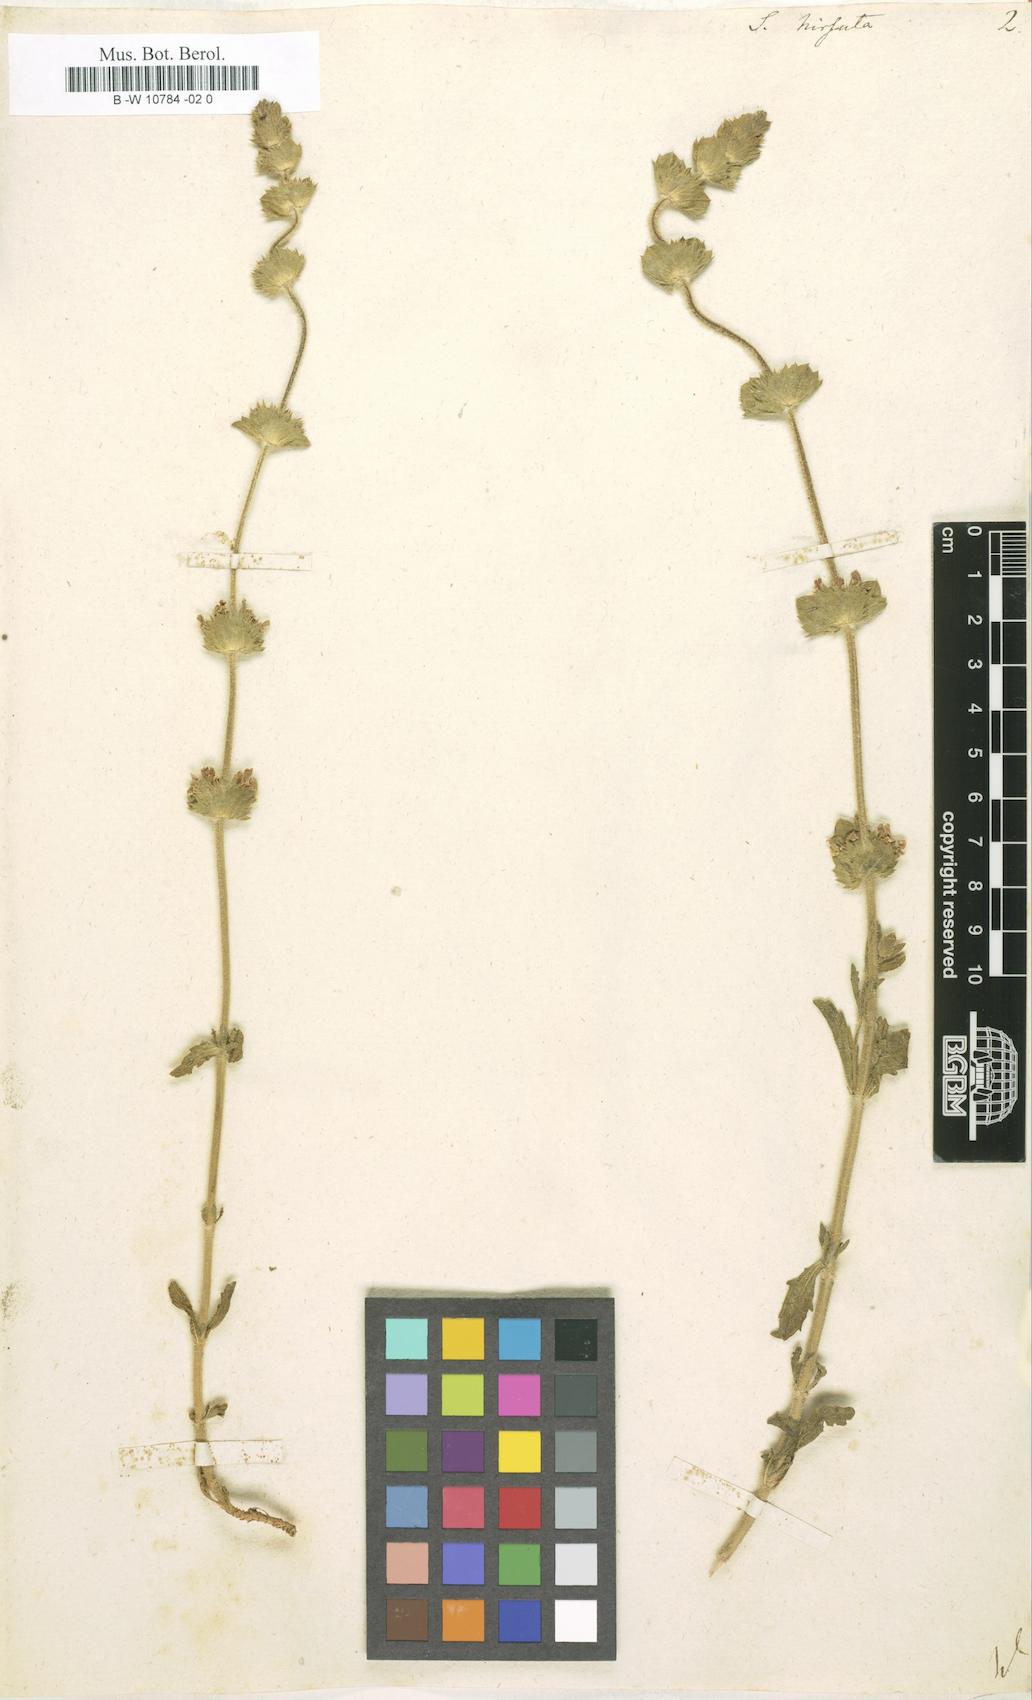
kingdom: Plantae
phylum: Tracheophyta
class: Magnoliopsida
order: Lamiales
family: Lamiaceae
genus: Sideritis
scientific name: Sideritis hirsuta
